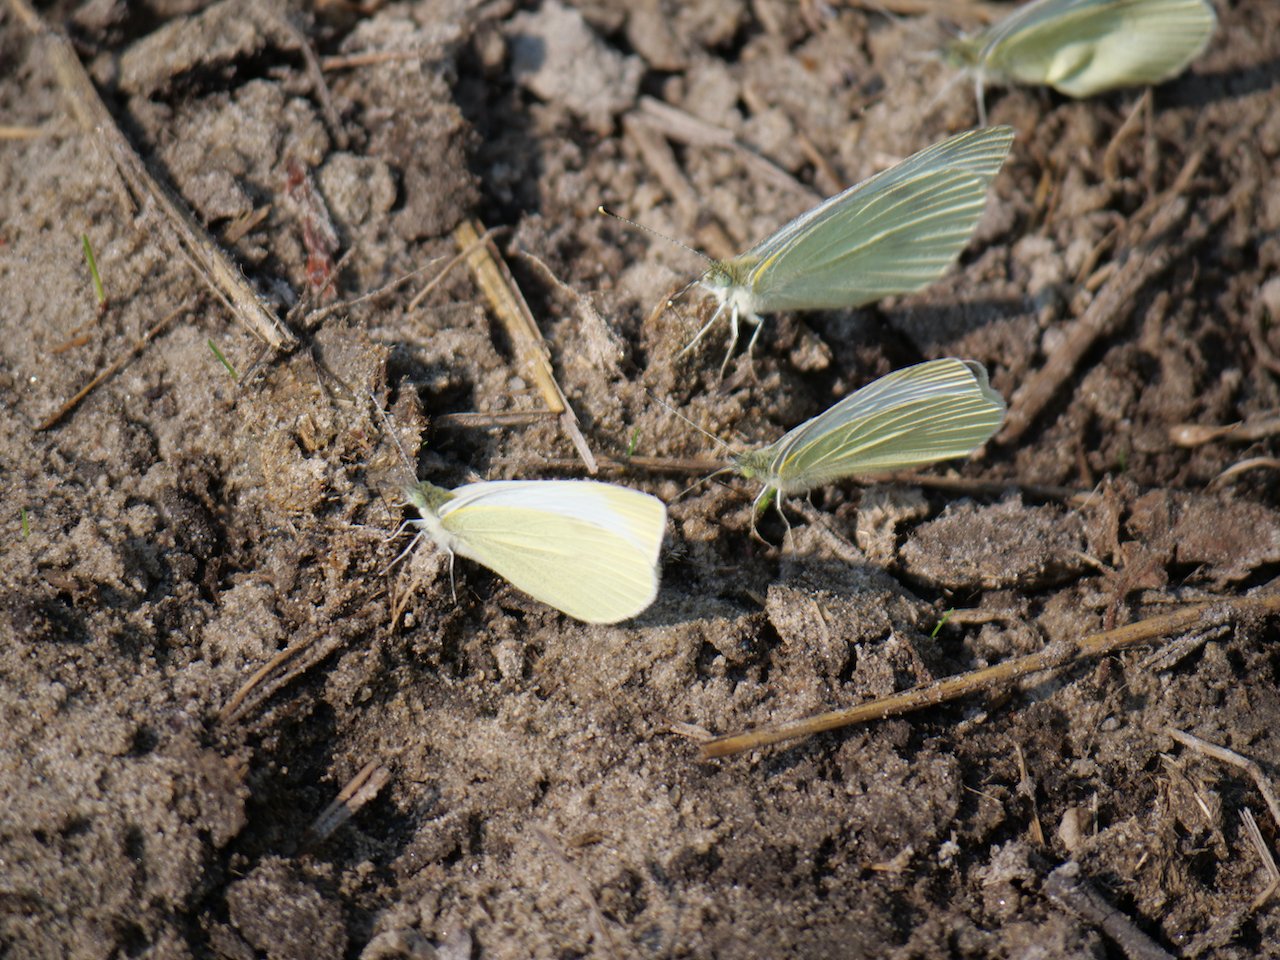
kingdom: Animalia
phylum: Arthropoda
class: Insecta
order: Lepidoptera
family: Pieridae
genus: Pieris
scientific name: Pieris rapae
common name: Cabbage White
